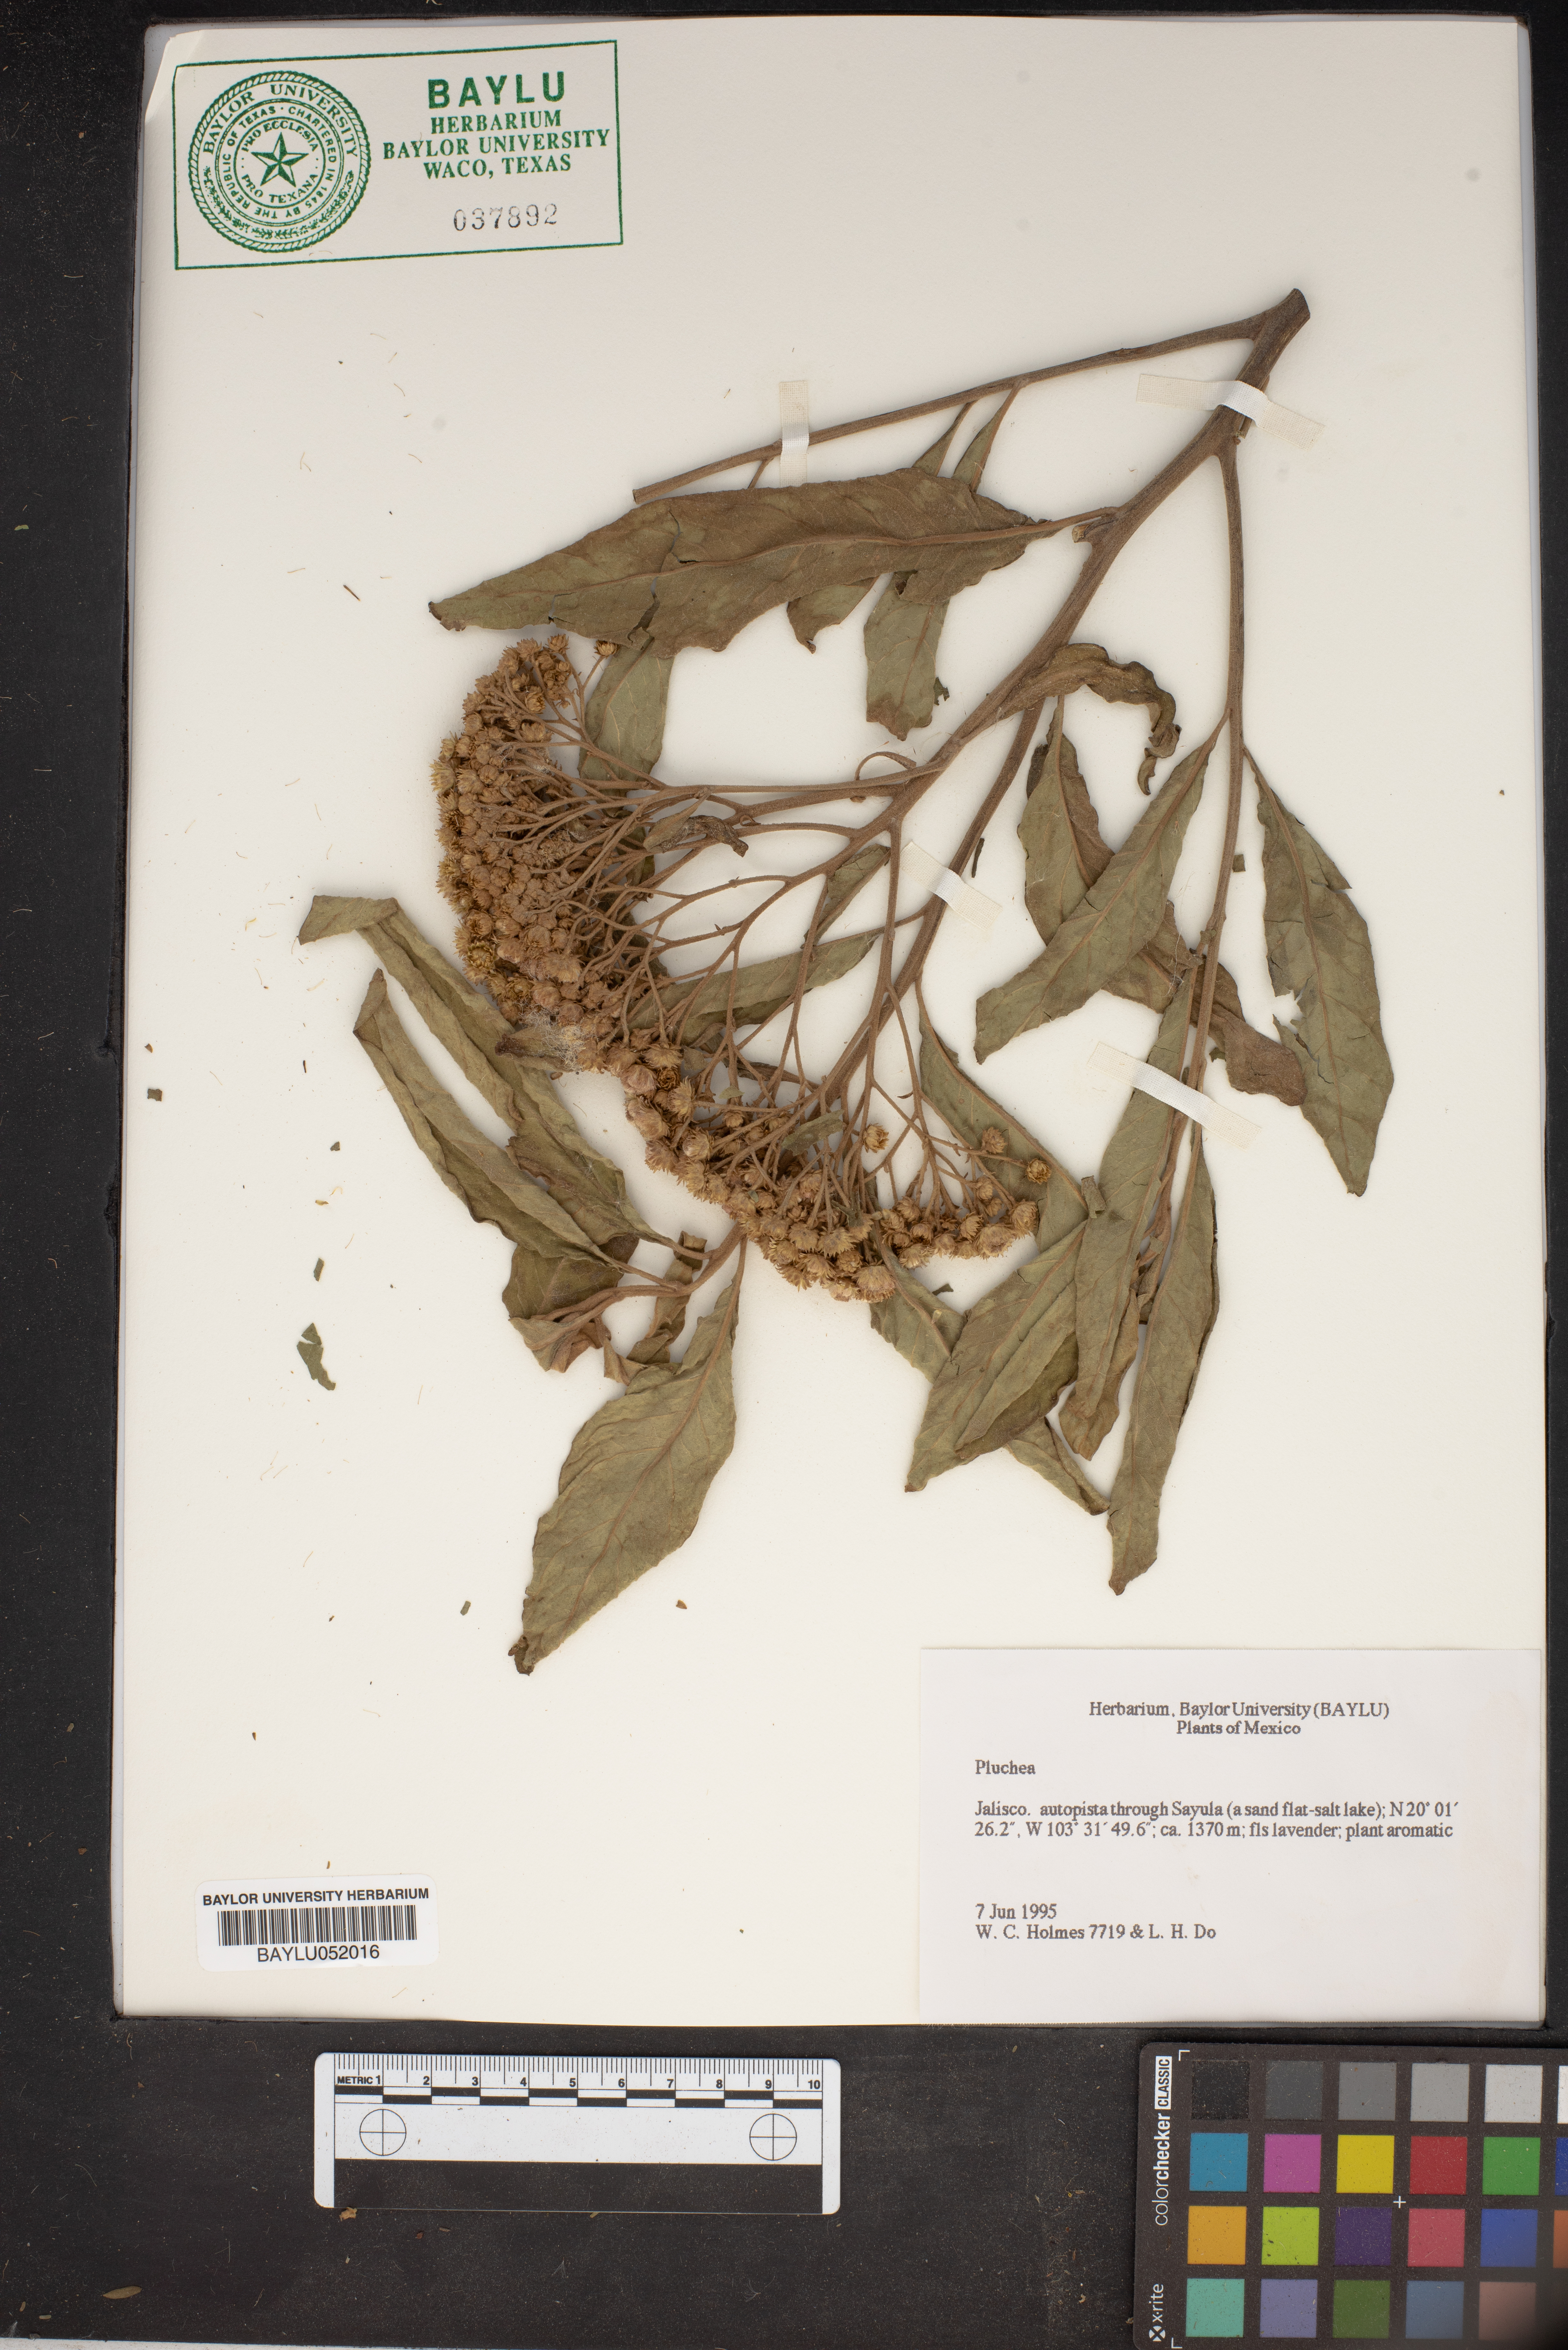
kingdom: Plantae
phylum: Tracheophyta
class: Magnoliopsida
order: Asterales
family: Asteraceae
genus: Pluchea
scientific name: Pluchea
